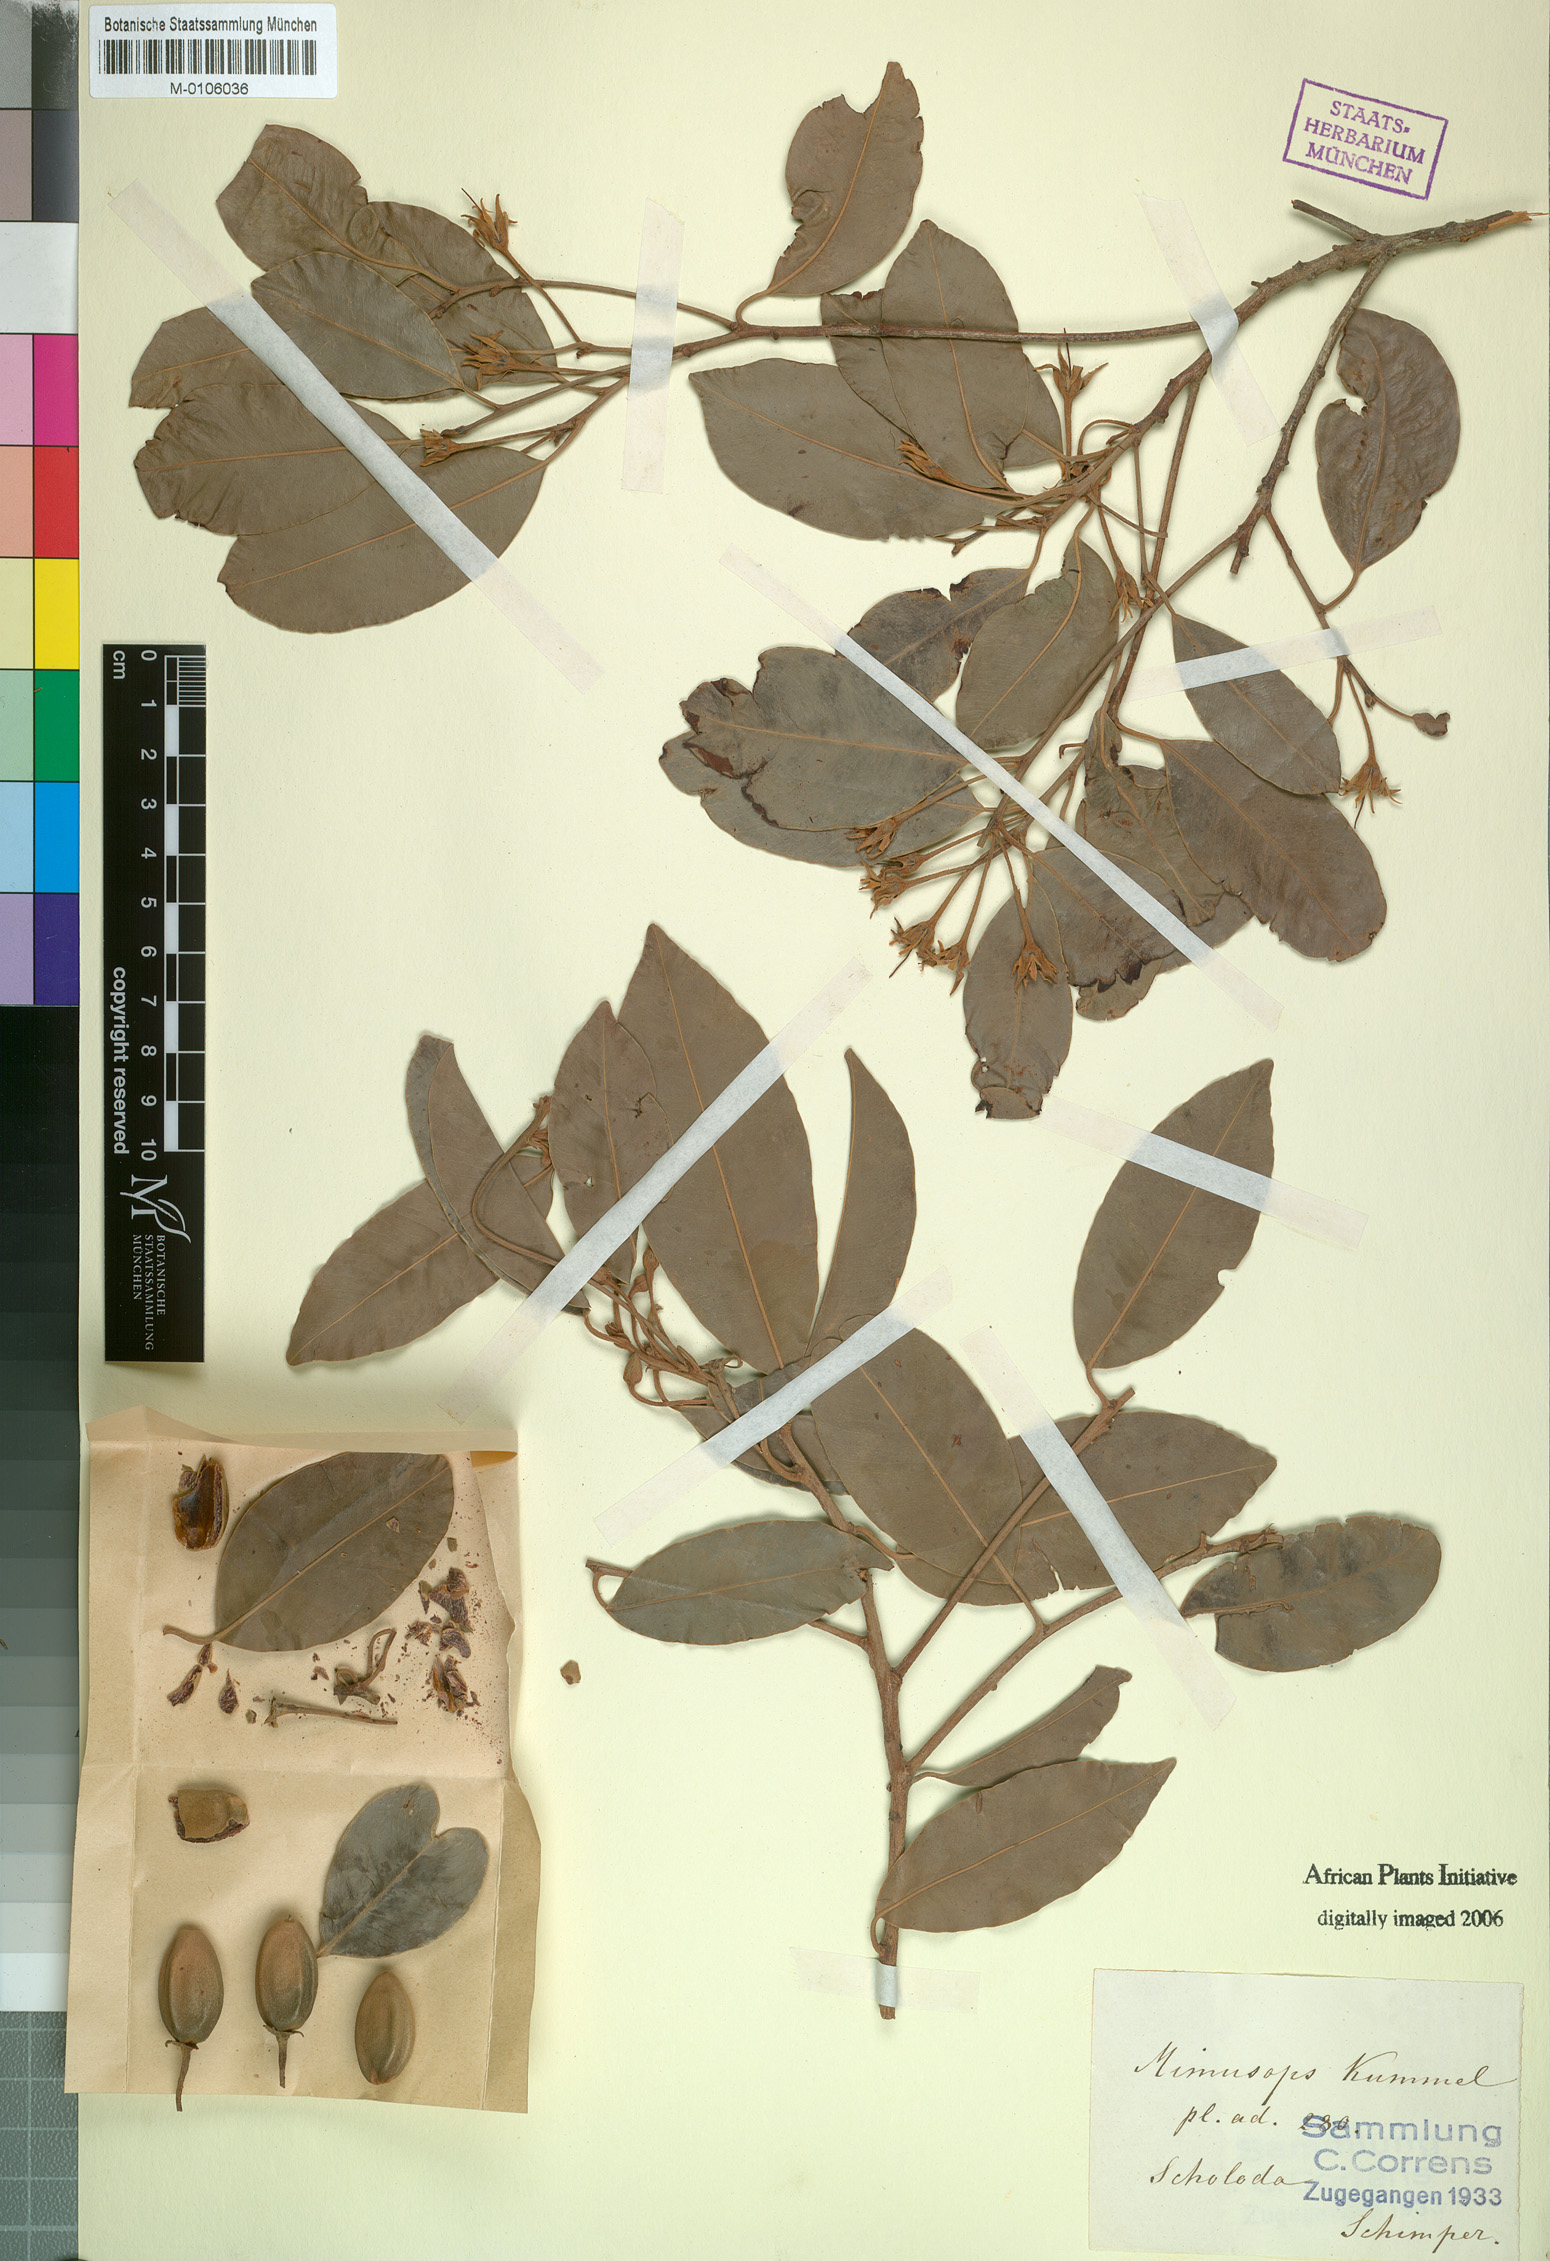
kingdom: Plantae
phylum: Tracheophyta
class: Magnoliopsida
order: Ericales
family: Sapotaceae
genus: Mimusops
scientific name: Mimusops kummel
